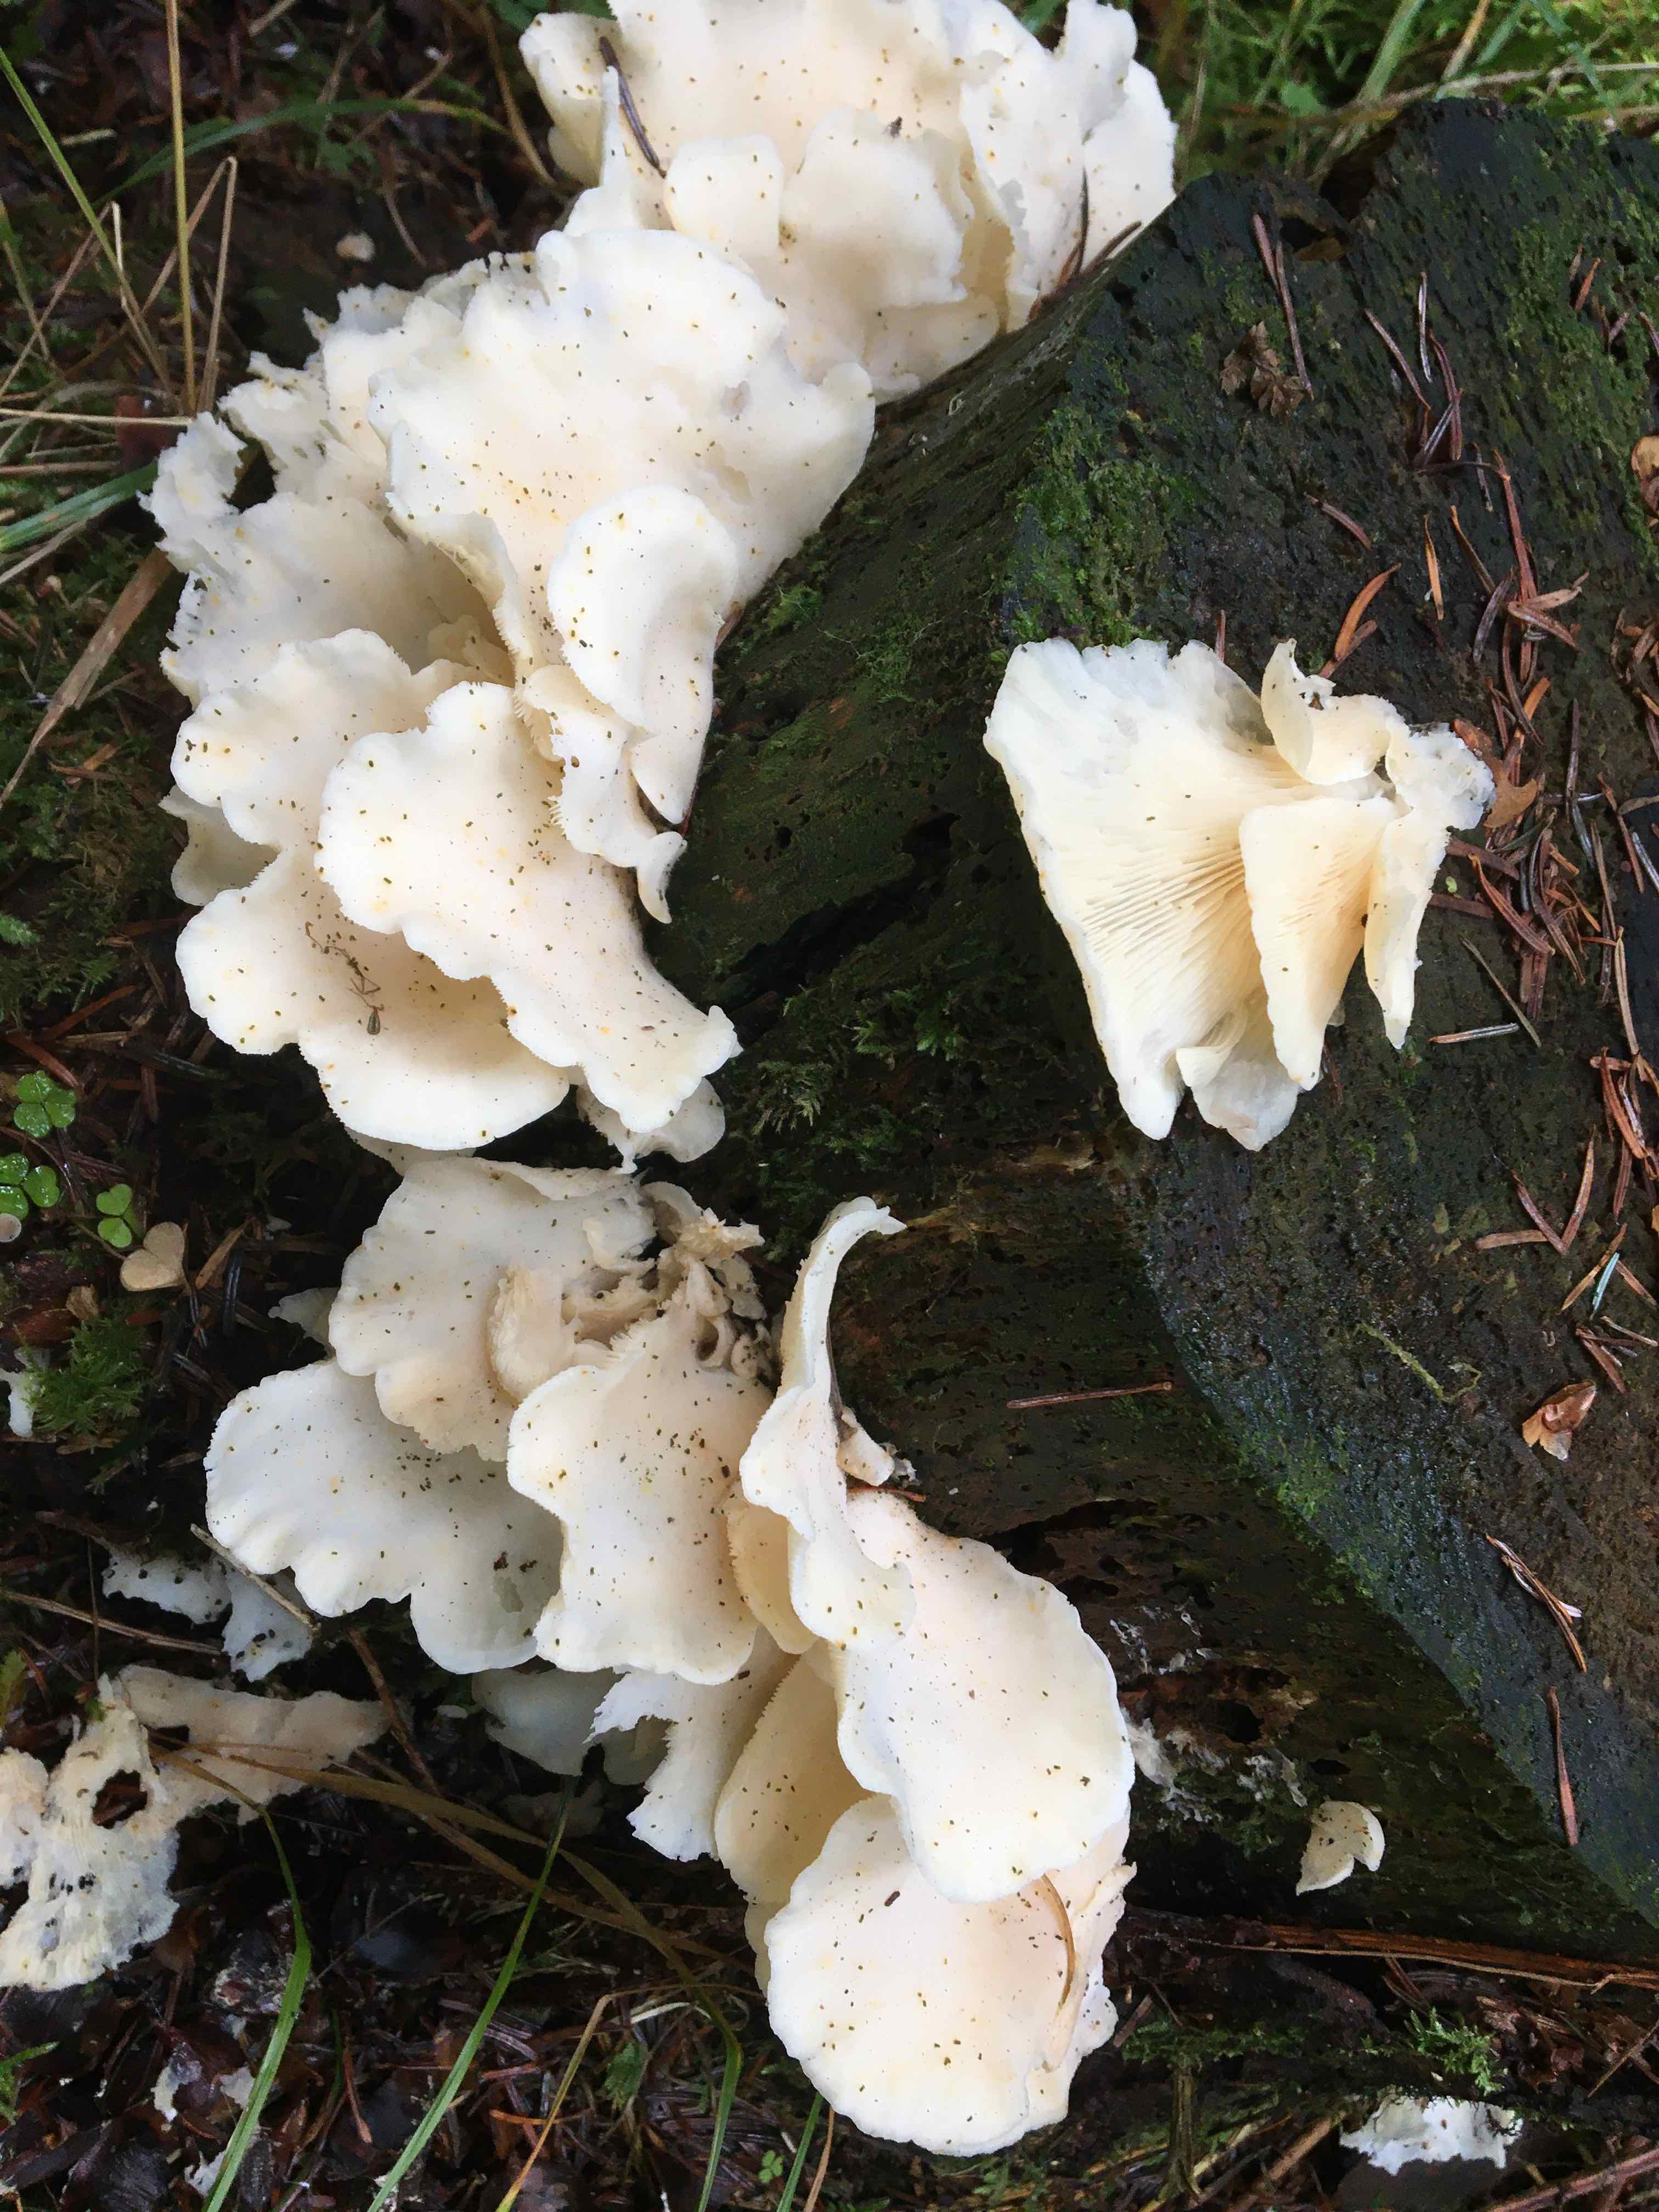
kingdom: Fungi
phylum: Basidiomycota
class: Agaricomycetes
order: Agaricales
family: Marasmiaceae
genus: Pleurocybella
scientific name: Pleurocybella porrigens
